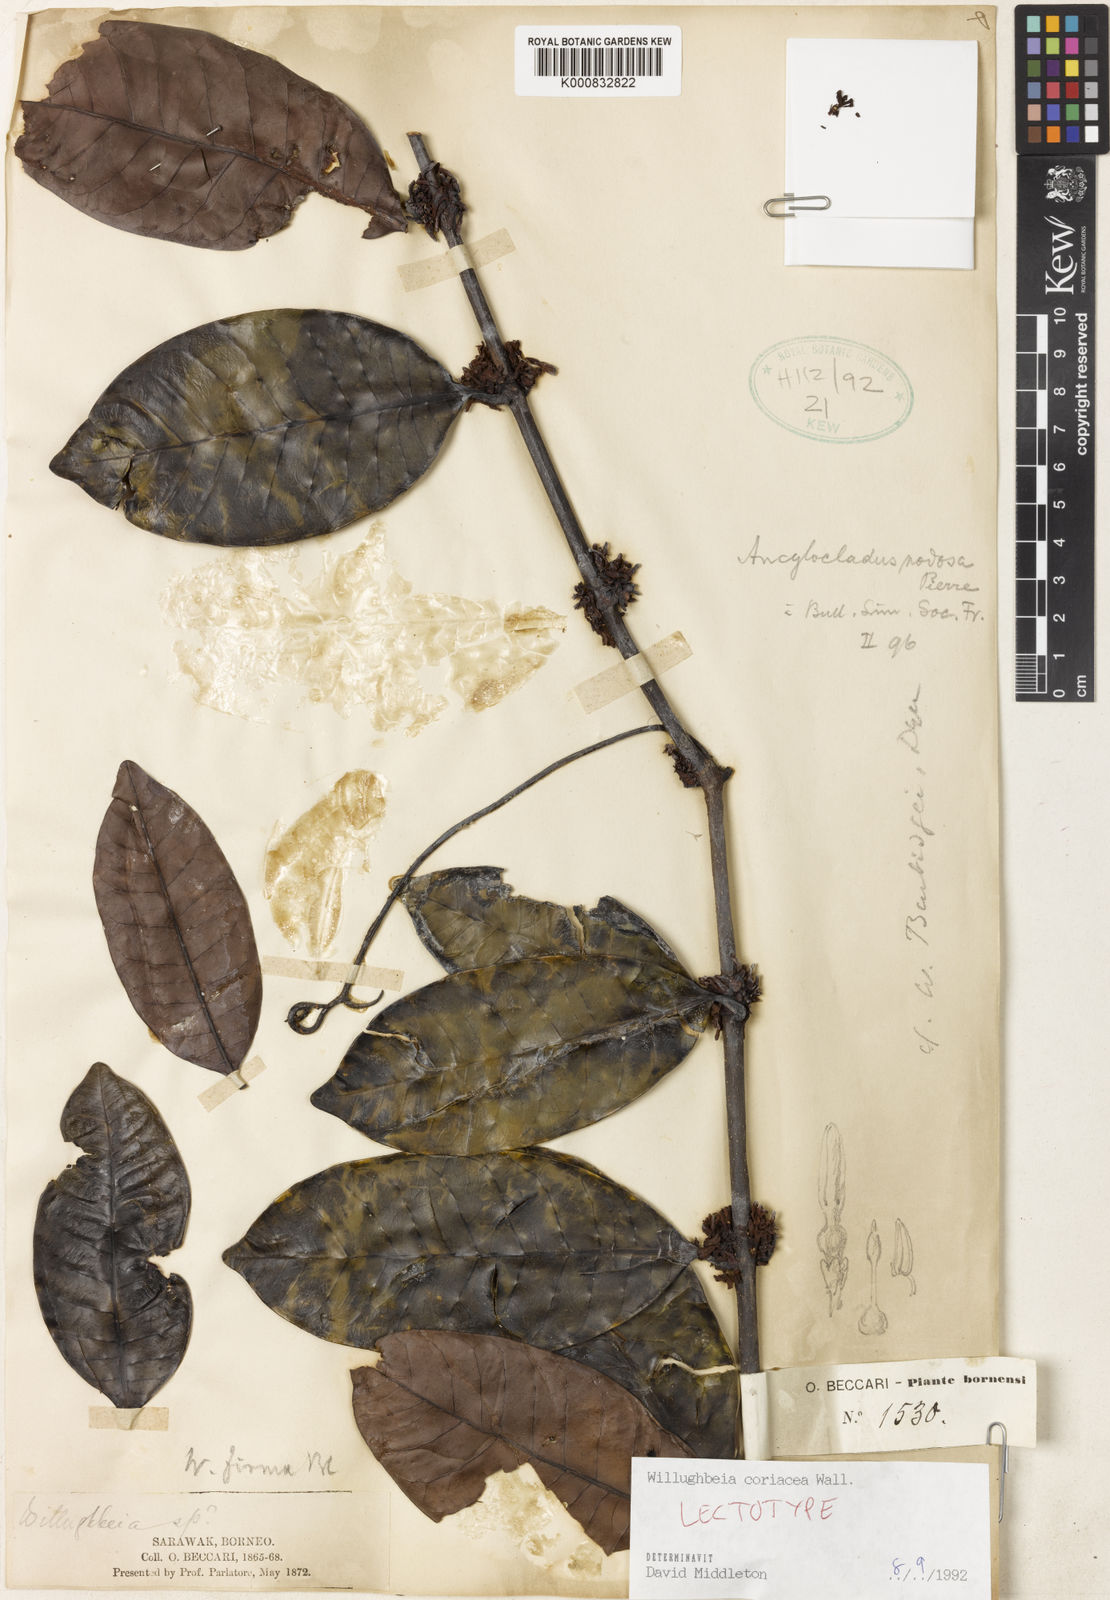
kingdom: Plantae
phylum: Tracheophyta
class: Magnoliopsida
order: Gentianales
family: Apocynaceae
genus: Willughbeia
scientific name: Willughbeia coriacea
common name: Borneo-rubber
